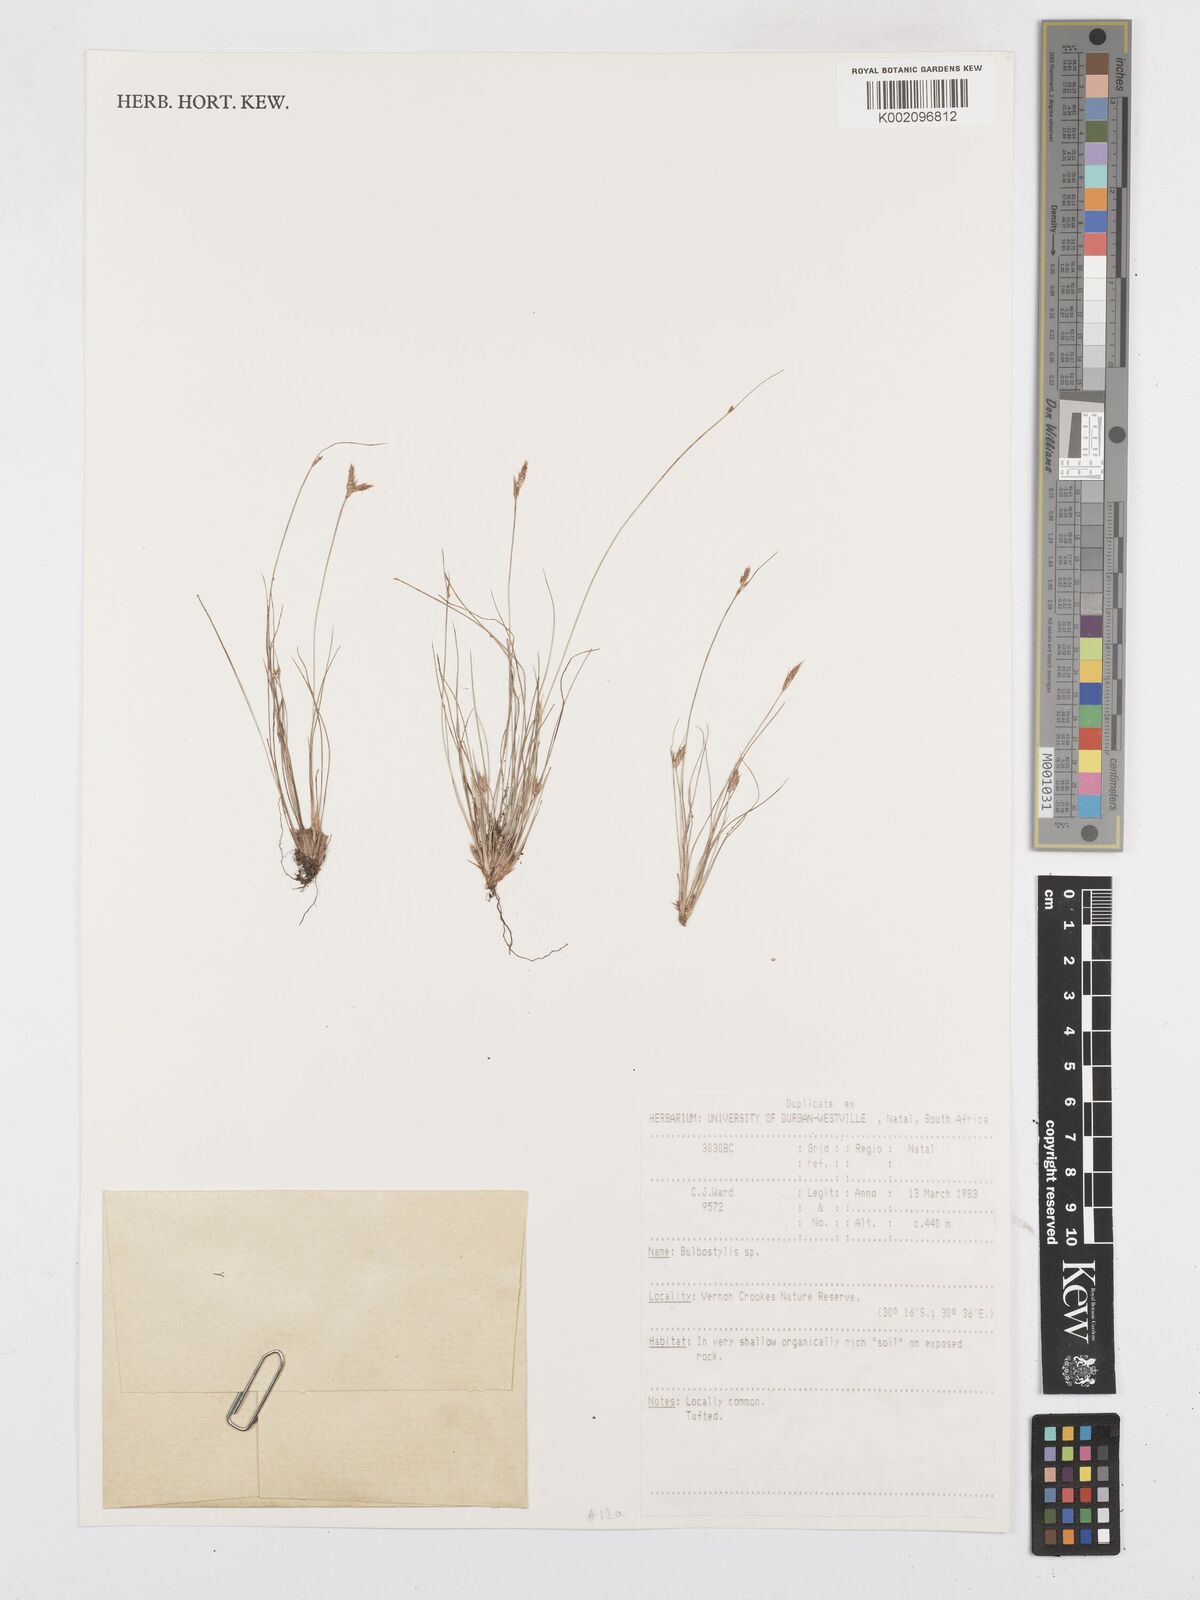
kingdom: Plantae
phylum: Tracheophyta
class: Liliopsida
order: Poales
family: Cyperaceae
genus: Bulbostylis
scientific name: Bulbostylis
